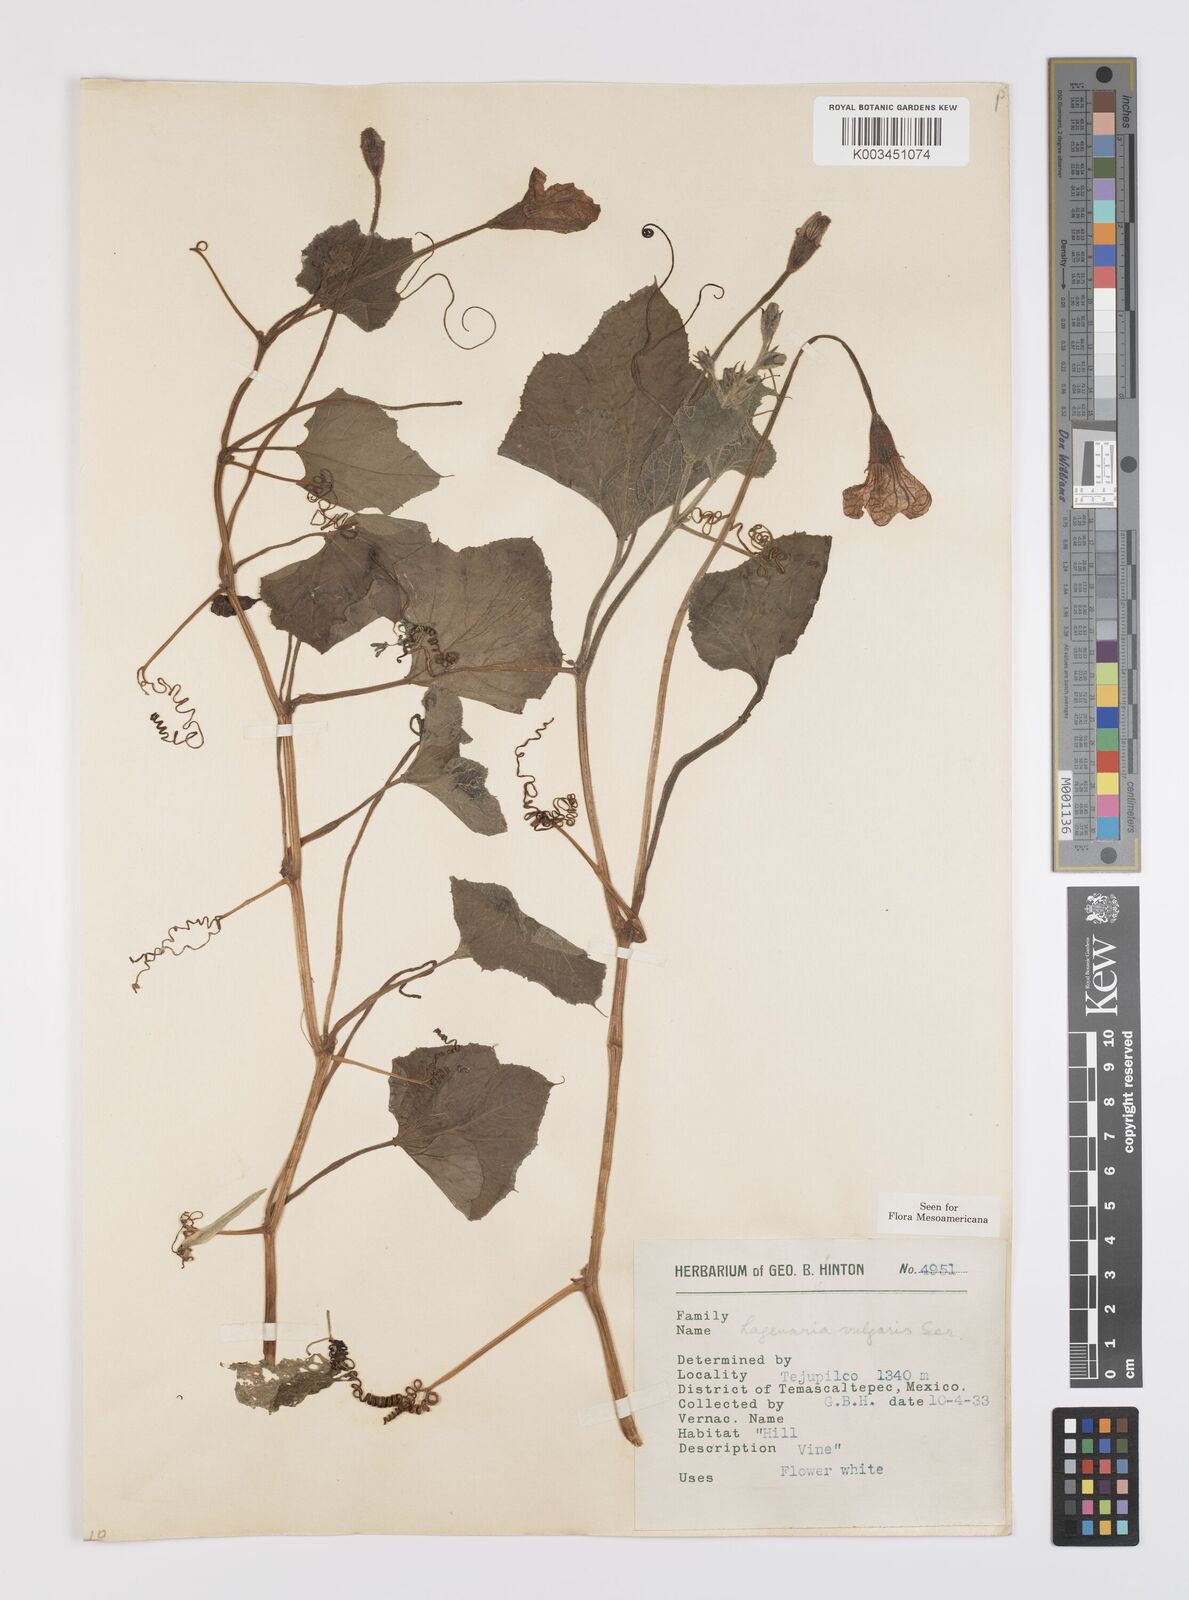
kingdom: Plantae
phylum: Tracheophyta
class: Magnoliopsida
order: Cucurbitales
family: Cucurbitaceae
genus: Lagenaria
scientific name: Lagenaria siceraria
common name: Bottle gourd
